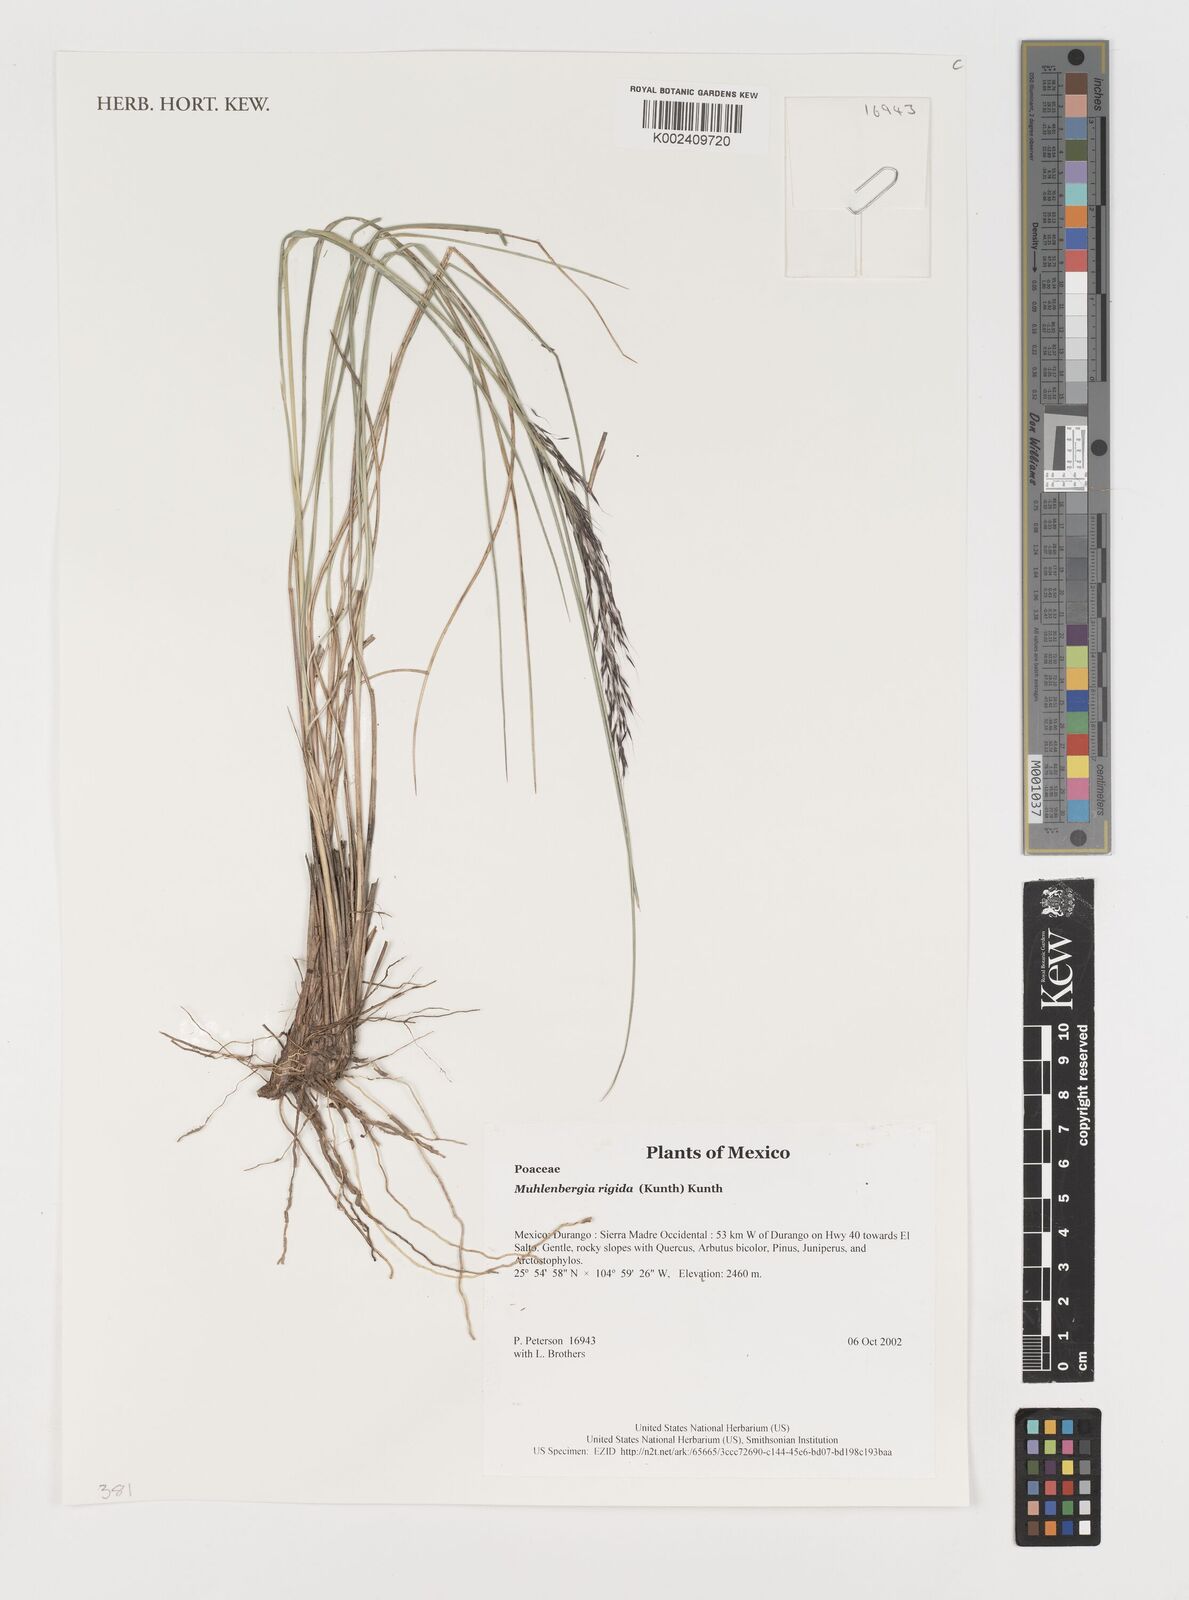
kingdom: Plantae
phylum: Tracheophyta
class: Liliopsida
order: Poales
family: Poaceae
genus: Muhlenbergia
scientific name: Muhlenbergia rigida
